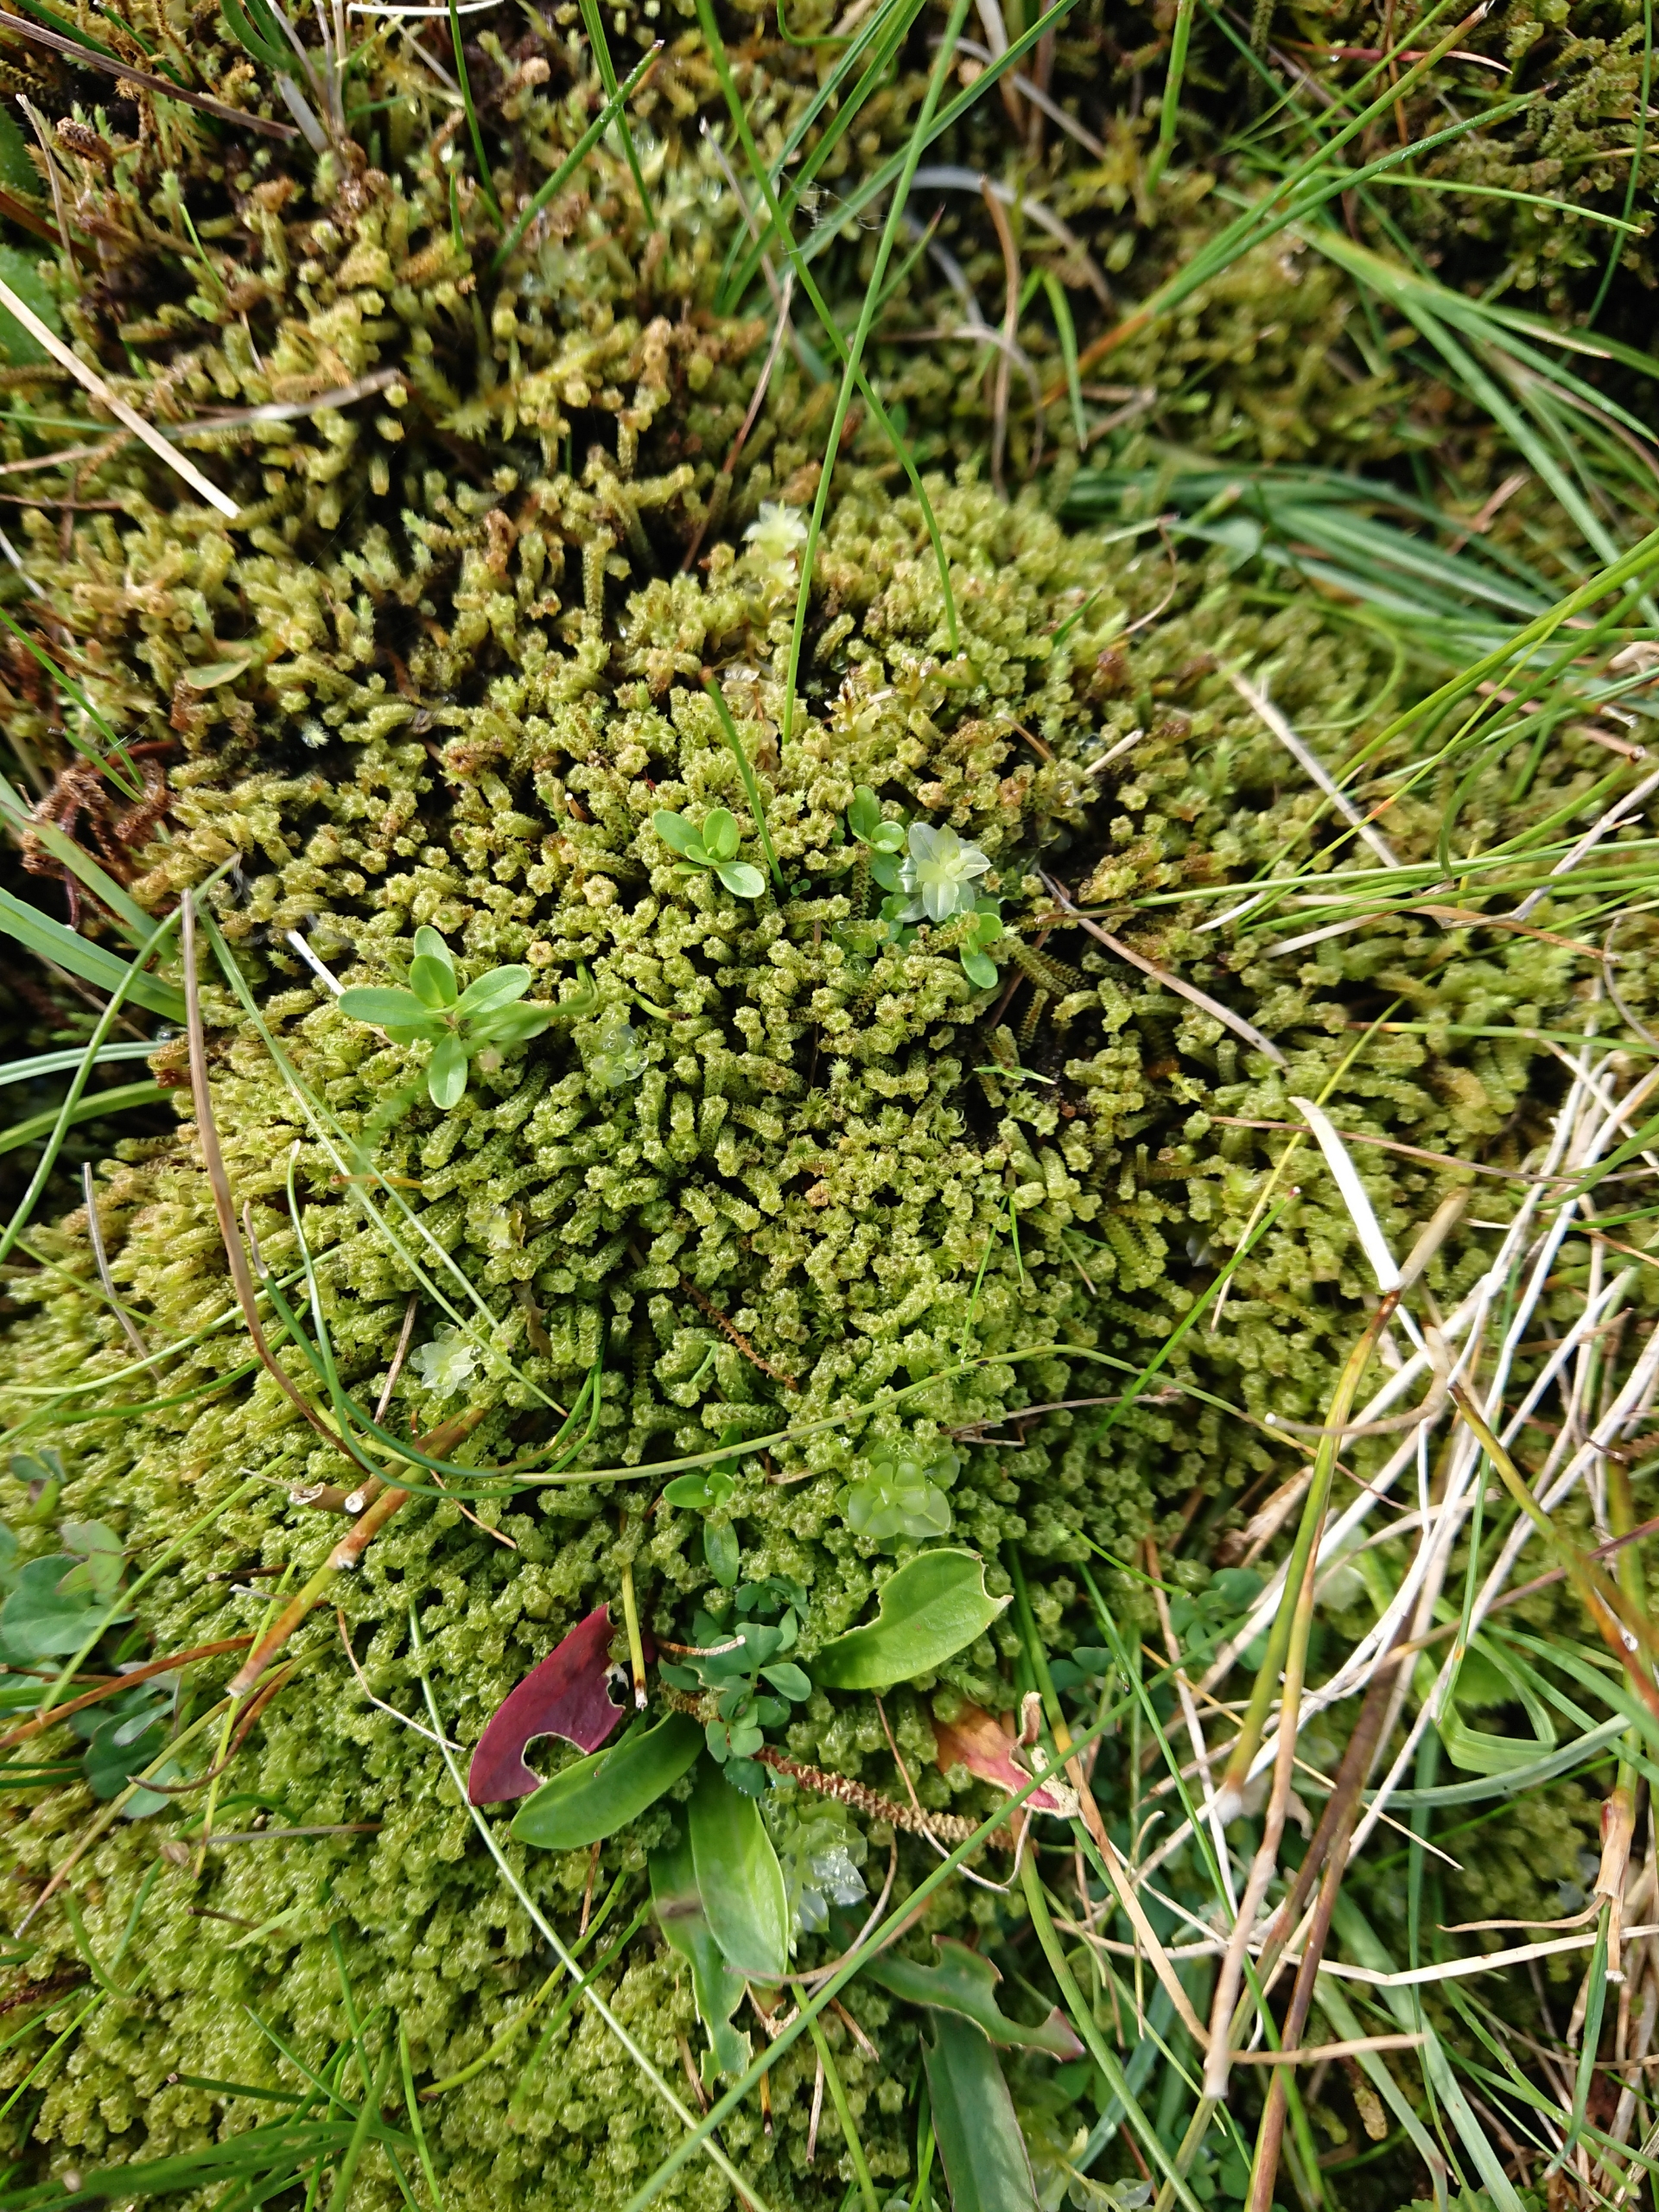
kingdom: Plantae
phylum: Bryophyta
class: Bryopsida
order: Splachnales
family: Meesiaceae
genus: Paludella
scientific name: Paludella squarrosa
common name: Almindelig piberensermos
